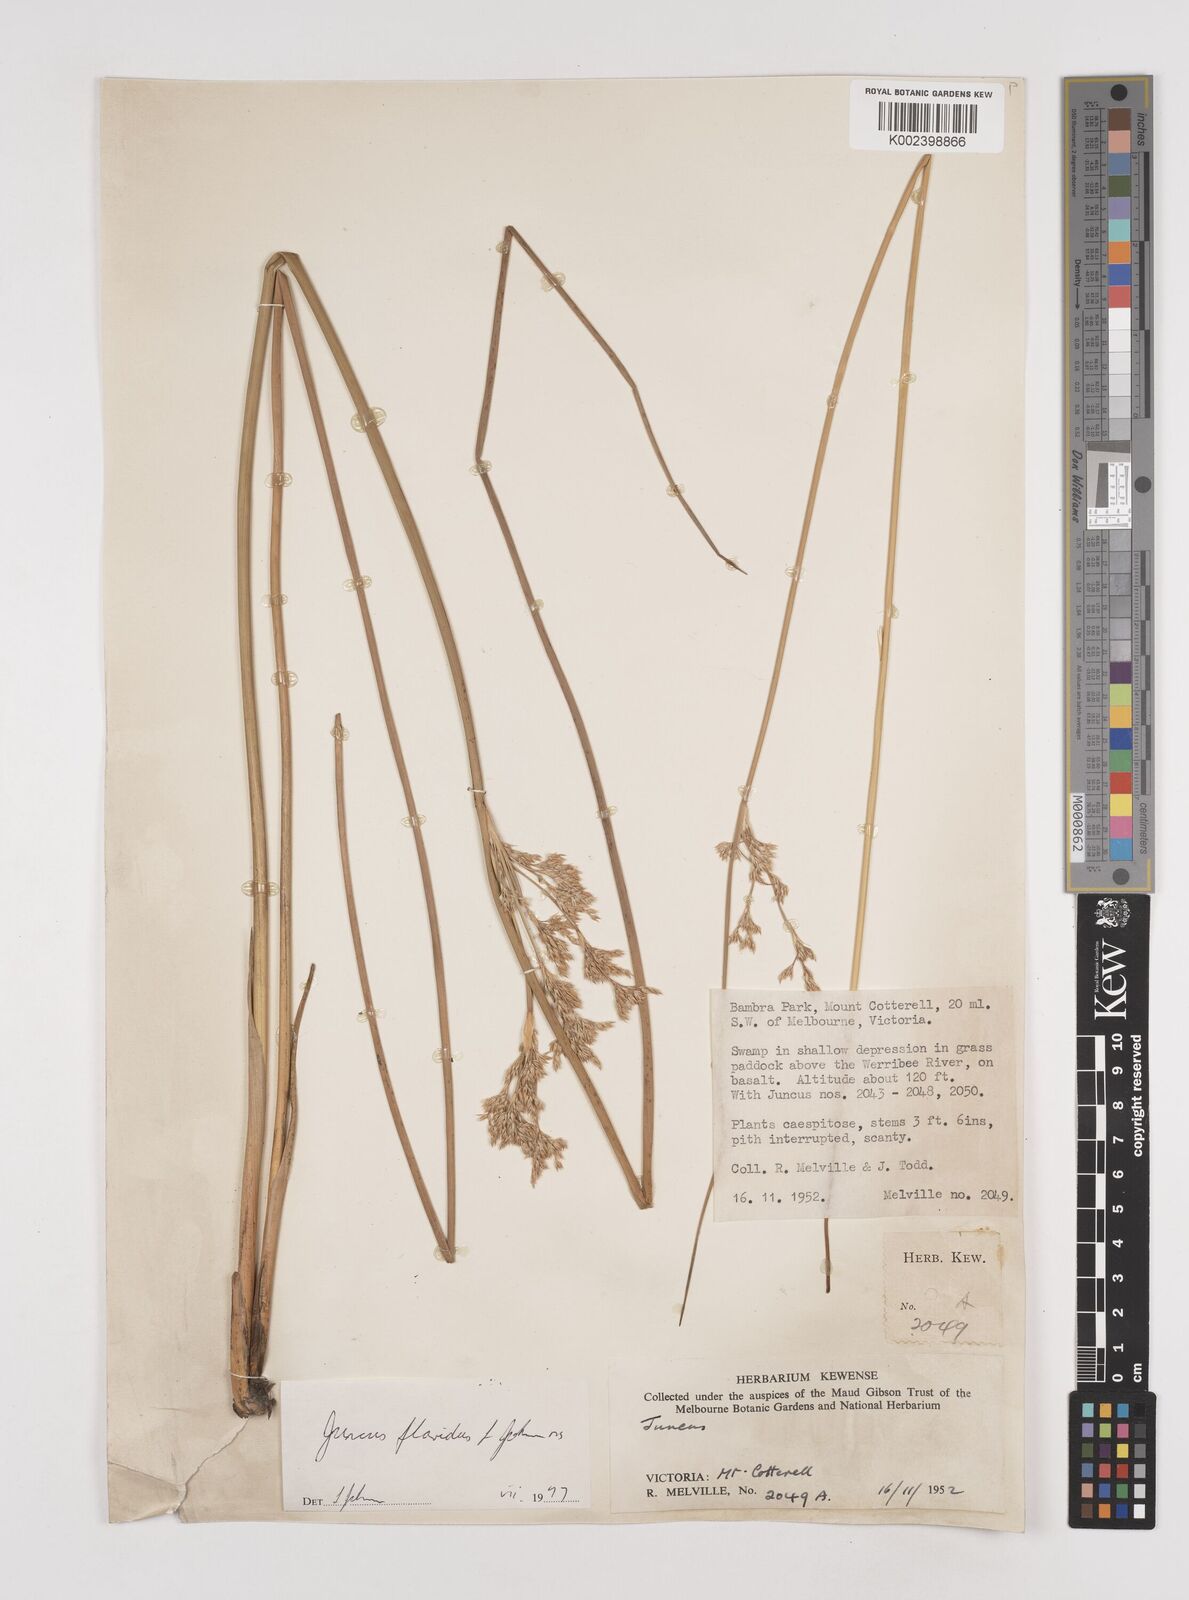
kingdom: Plantae
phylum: Tracheophyta
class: Liliopsida
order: Poales
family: Juncaceae
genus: Juncus
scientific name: Juncus flavidus
